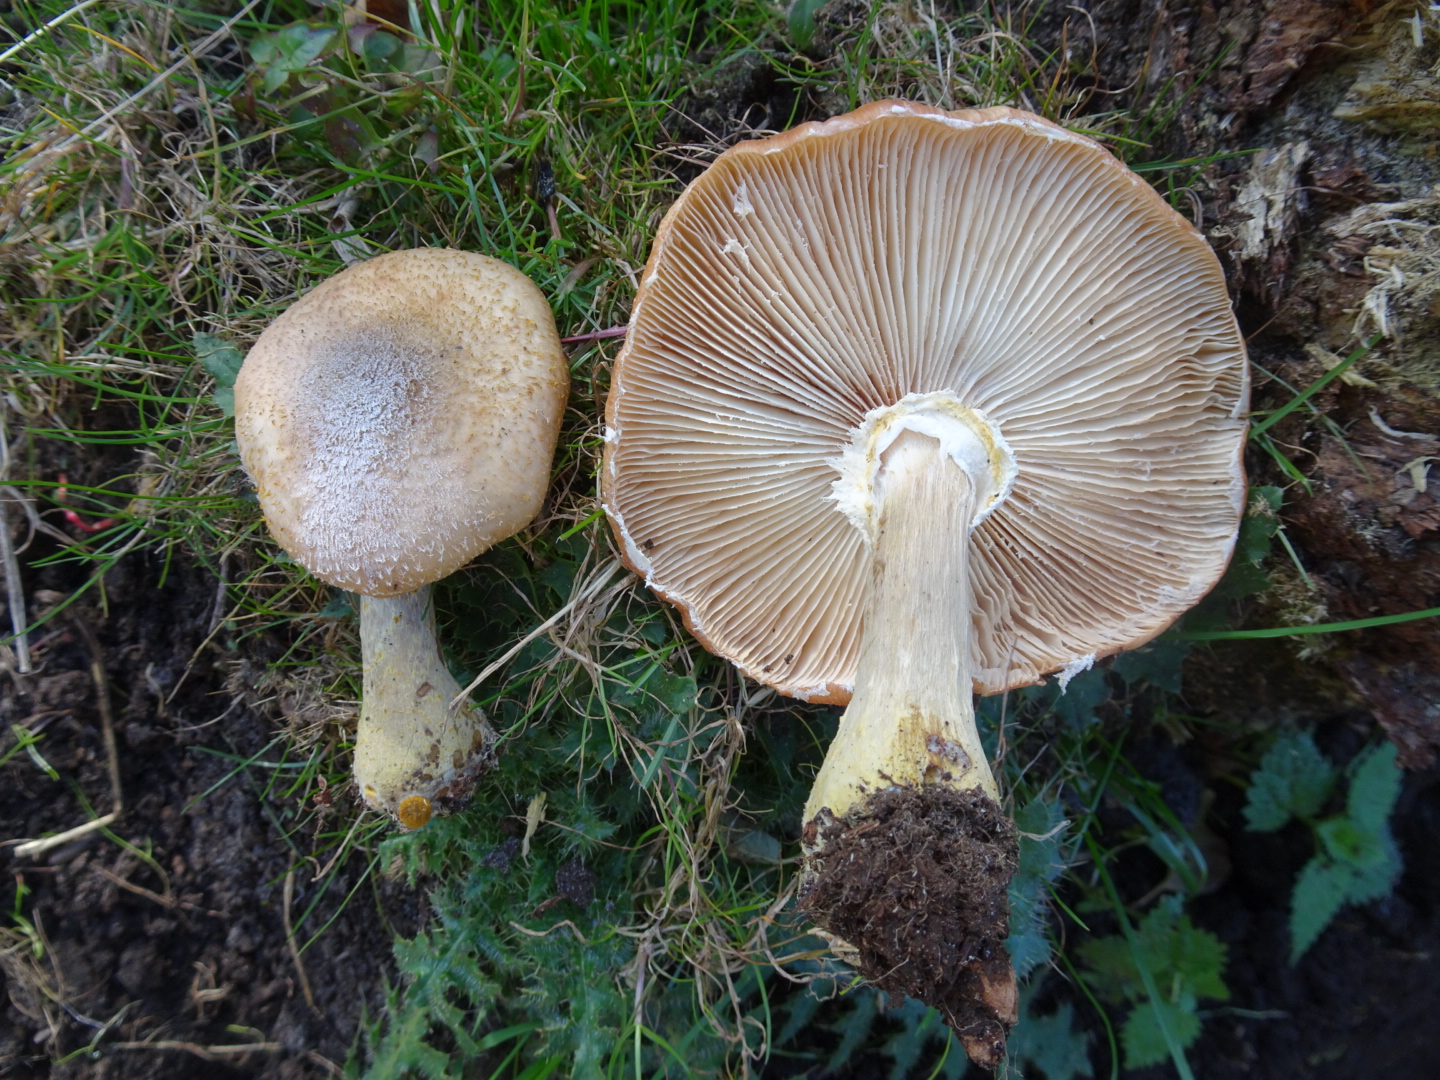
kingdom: Fungi
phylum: Basidiomycota
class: Agaricomycetes
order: Agaricales
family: Physalacriaceae
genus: Armillaria
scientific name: Armillaria lutea
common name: køllestokket honningsvamp
